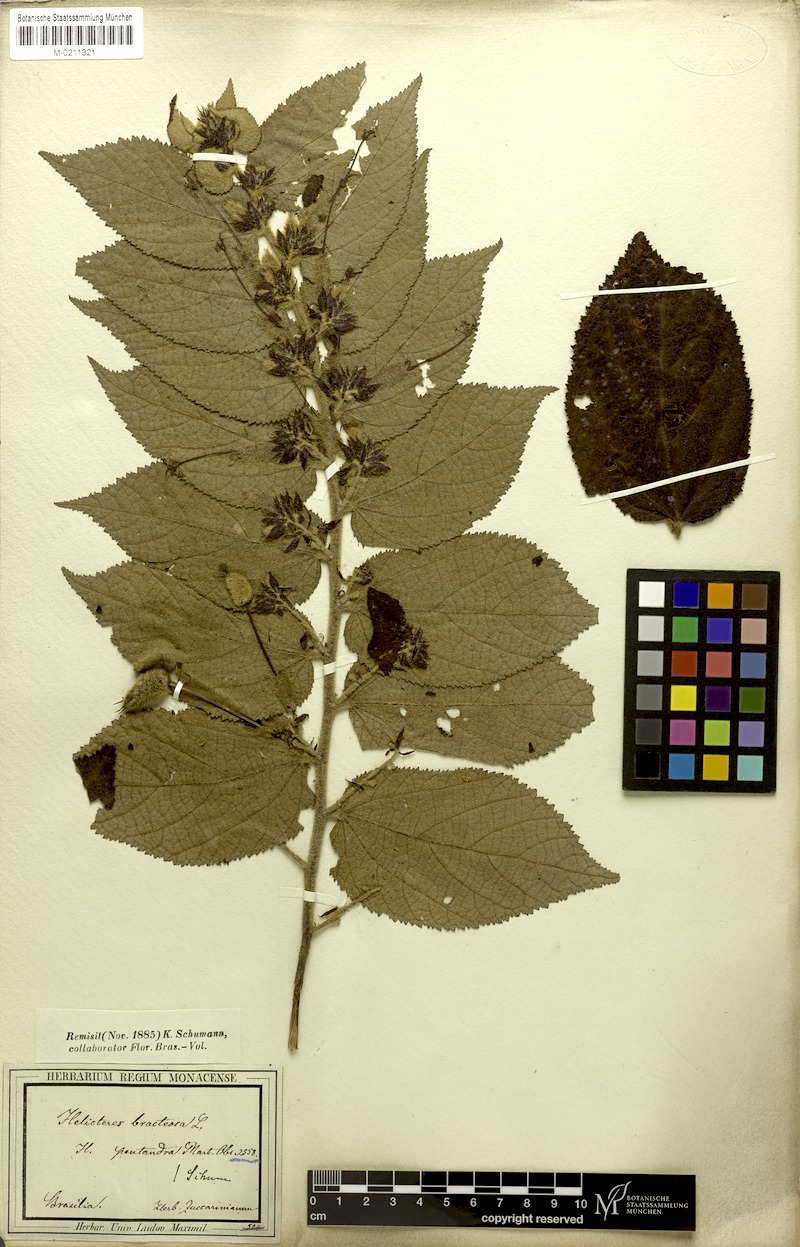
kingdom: Plantae
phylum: Tracheophyta
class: Magnoliopsida
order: Malvales
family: Malvaceae
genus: Helicteres
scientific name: Helicteres pentandra
